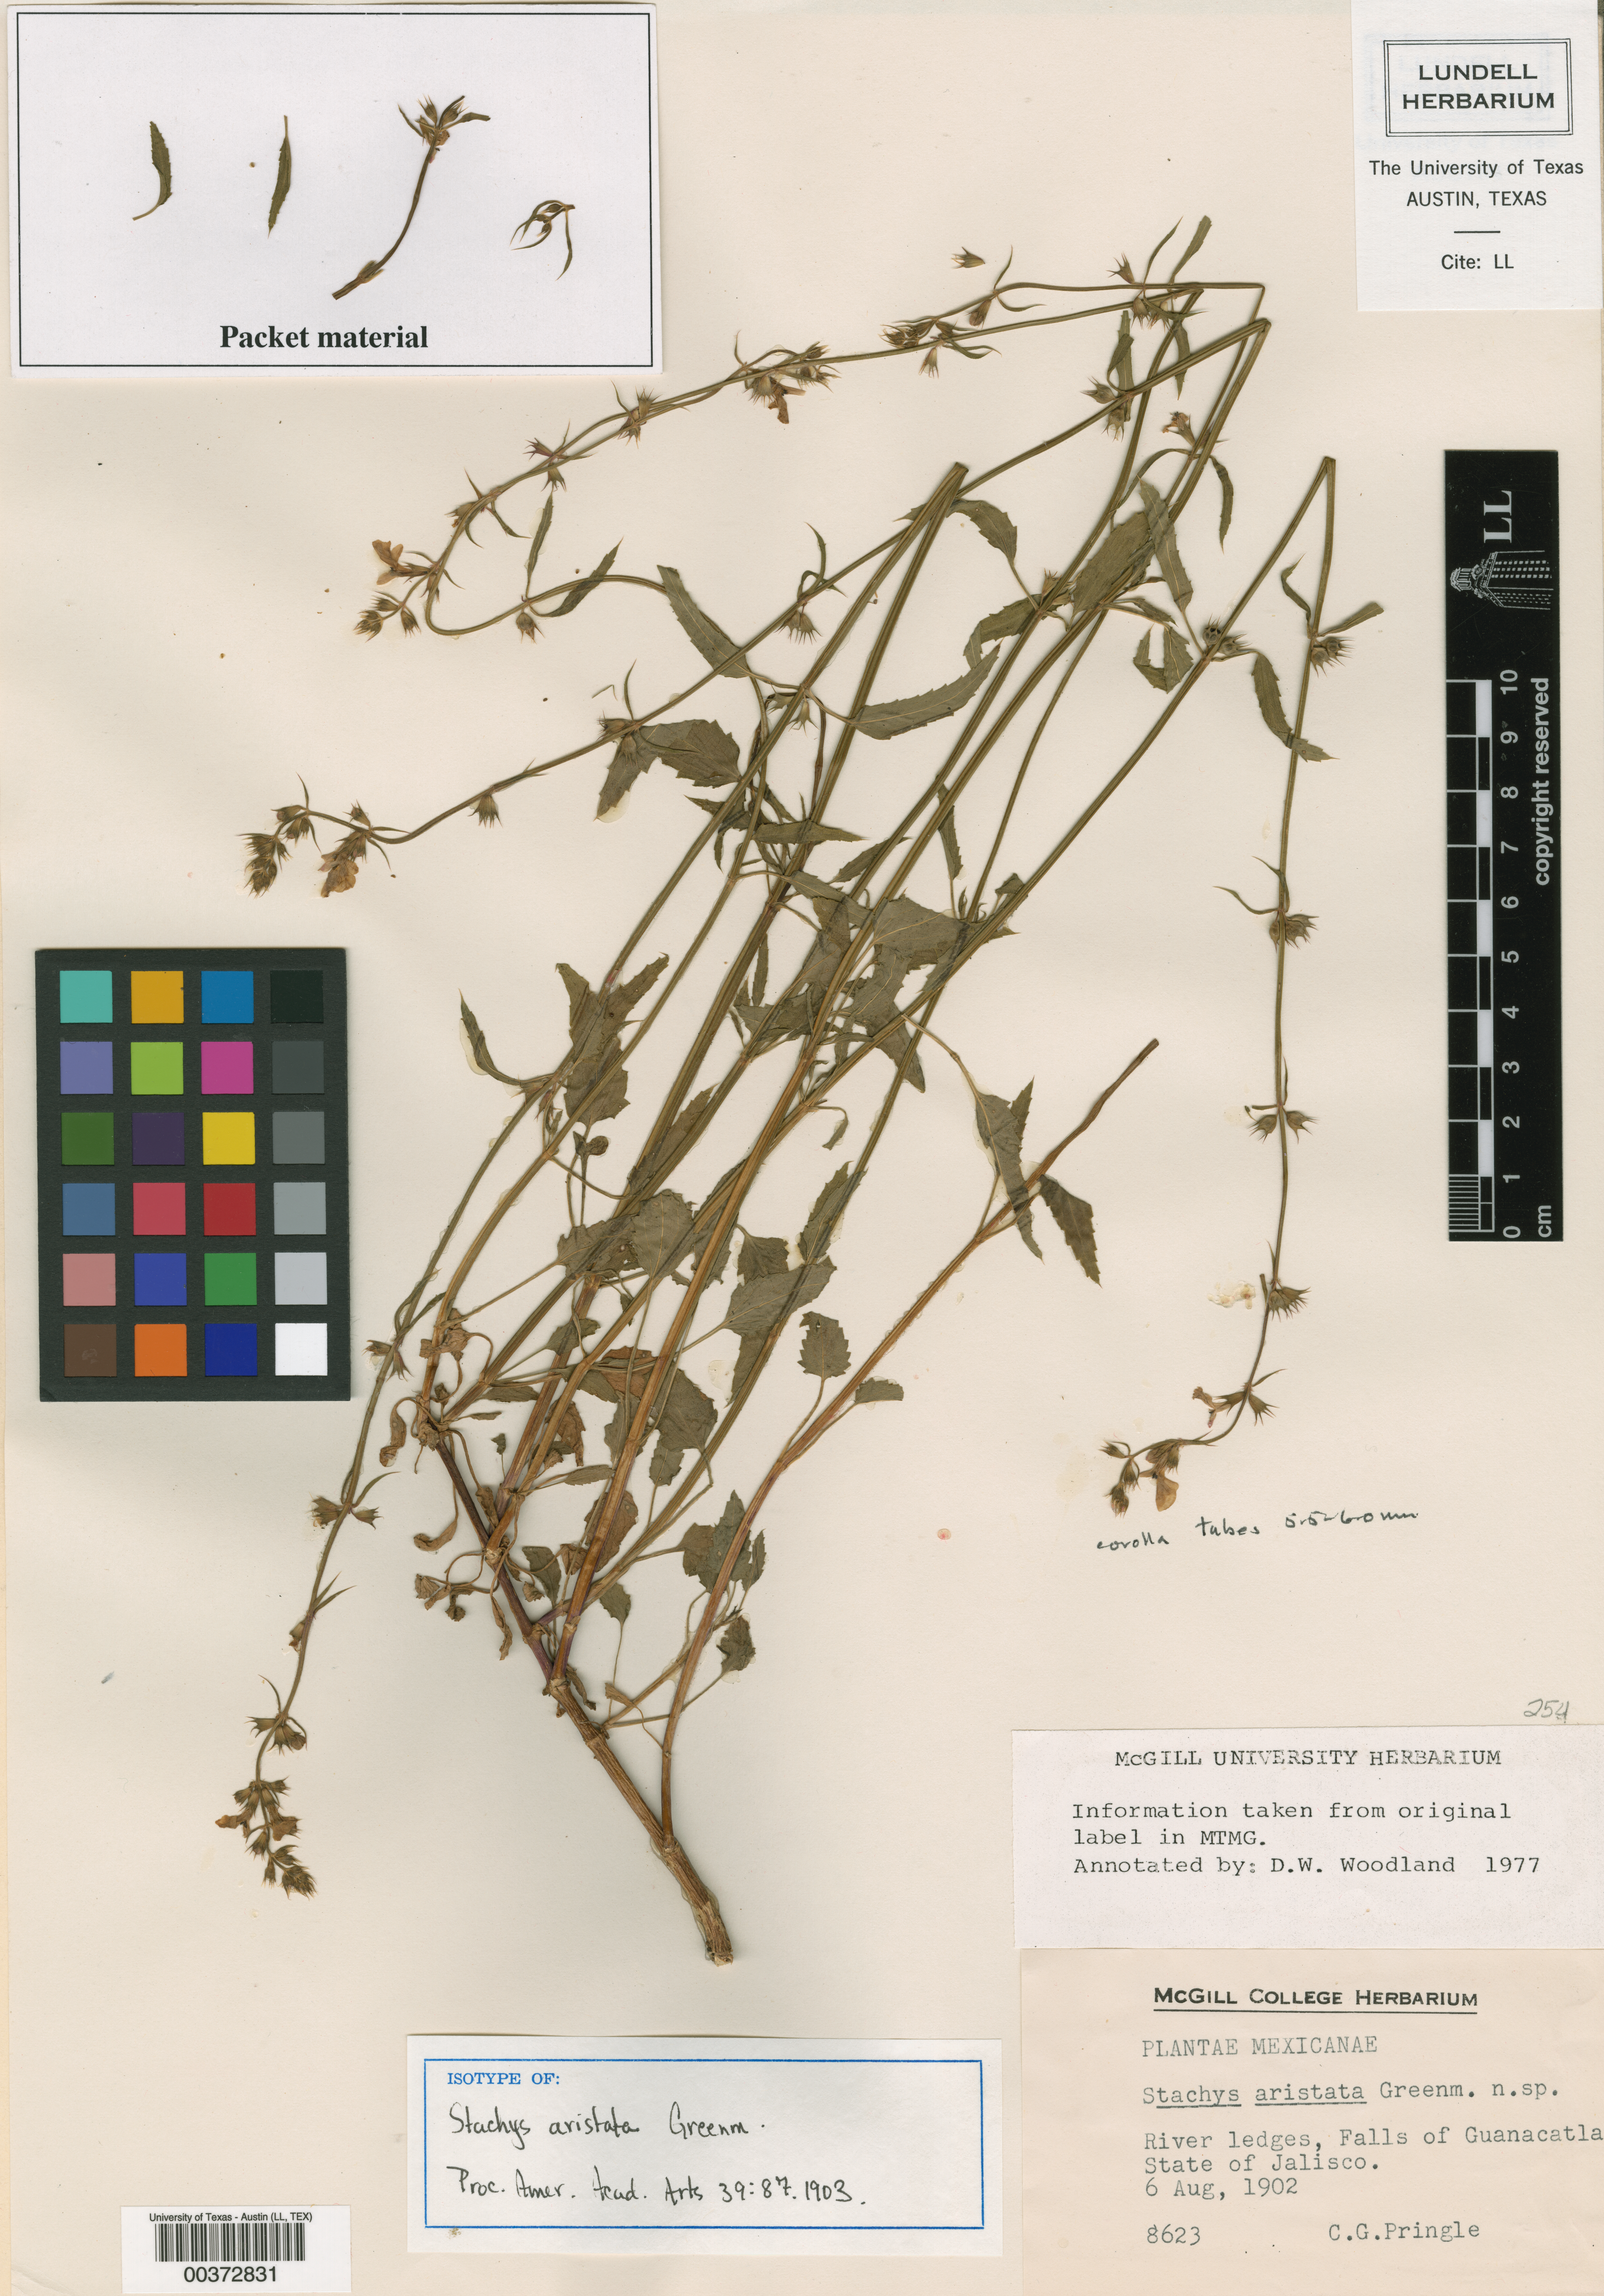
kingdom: Plantae
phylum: Tracheophyta
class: Magnoliopsida
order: Lamiales
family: Lamiaceae
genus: Stachys
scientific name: Stachys aristata
